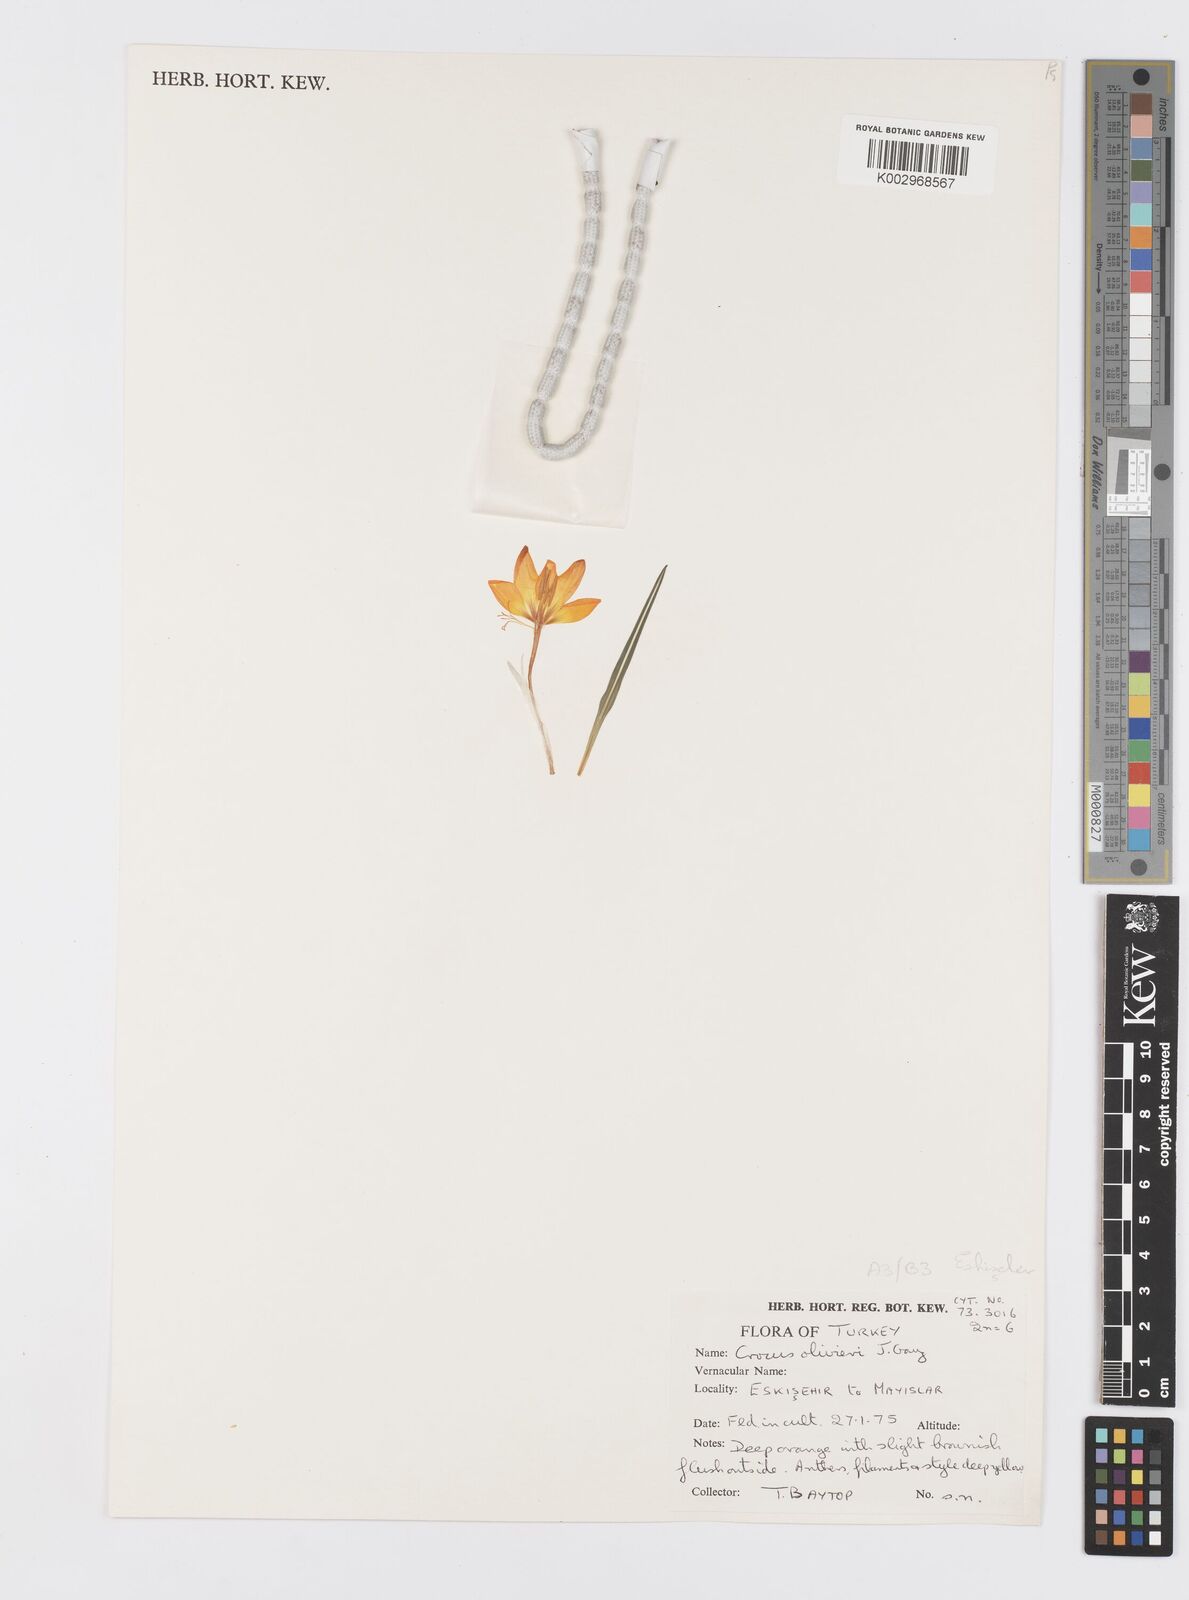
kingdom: Plantae
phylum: Tracheophyta
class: Liliopsida
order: Asparagales
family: Iridaceae
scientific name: Iridaceae
